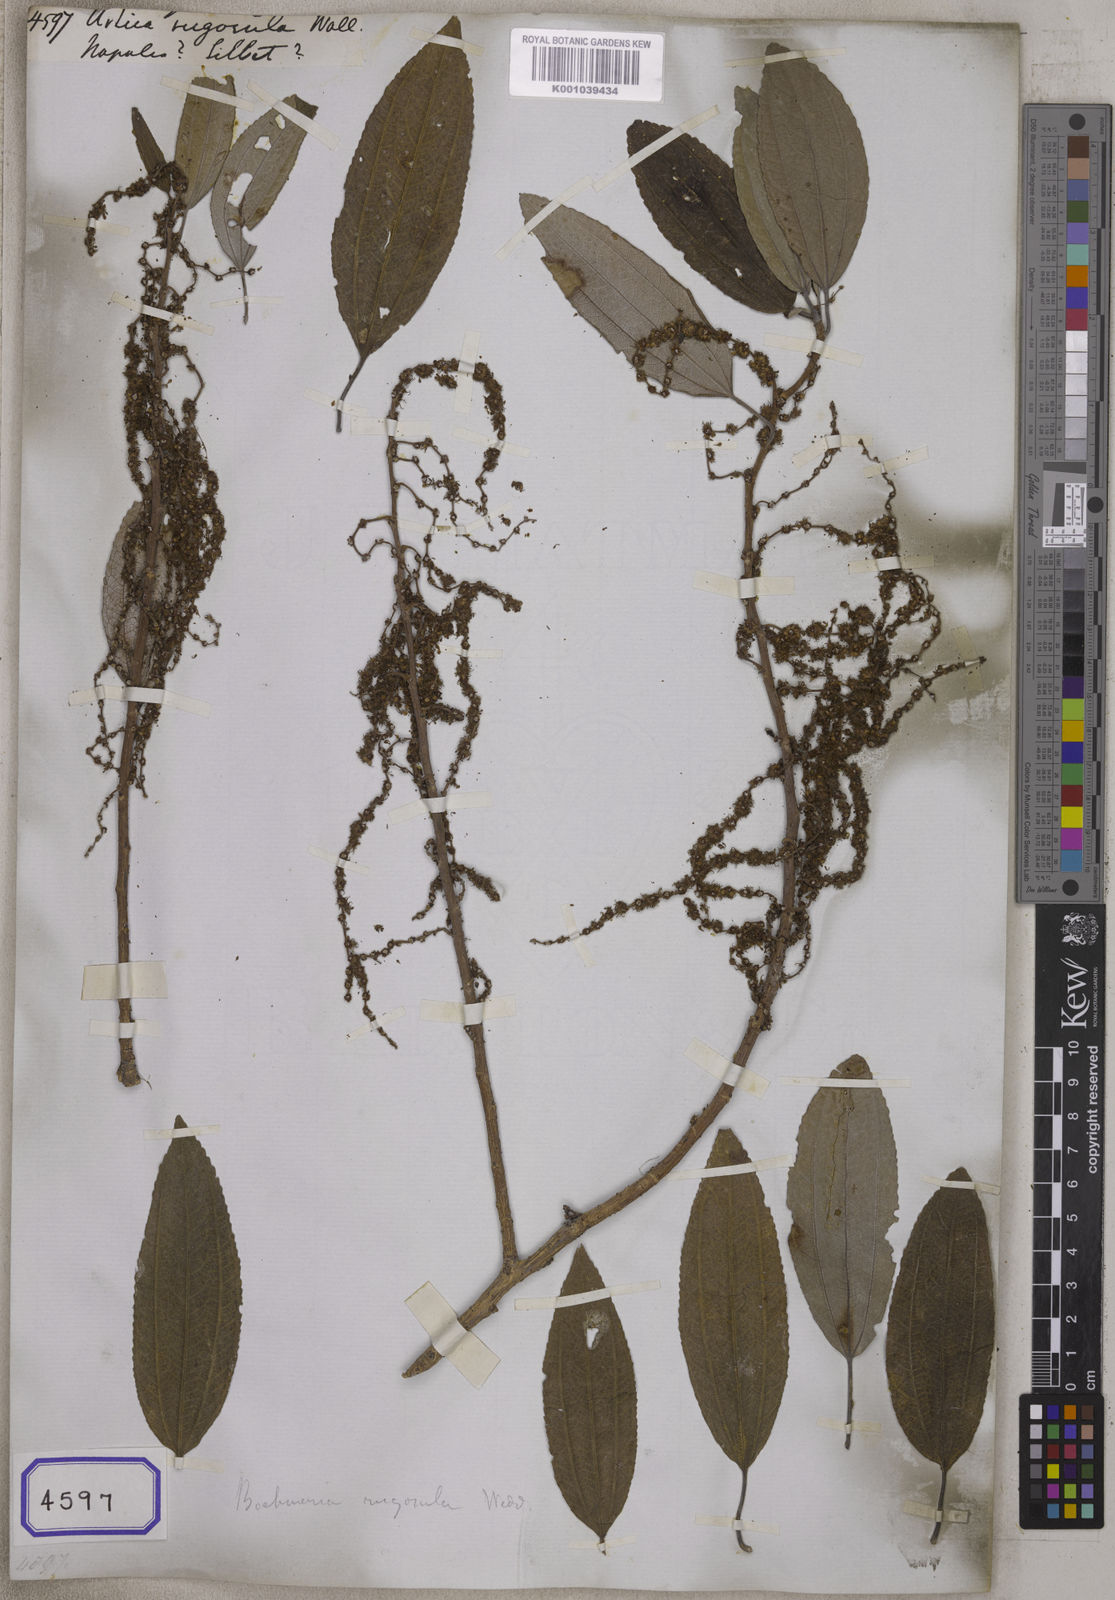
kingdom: Plantae
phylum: Tracheophyta
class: Magnoliopsida
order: Rosales
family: Urticaceae
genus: Pouzolzia
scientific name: Pouzolzia rugulosa
